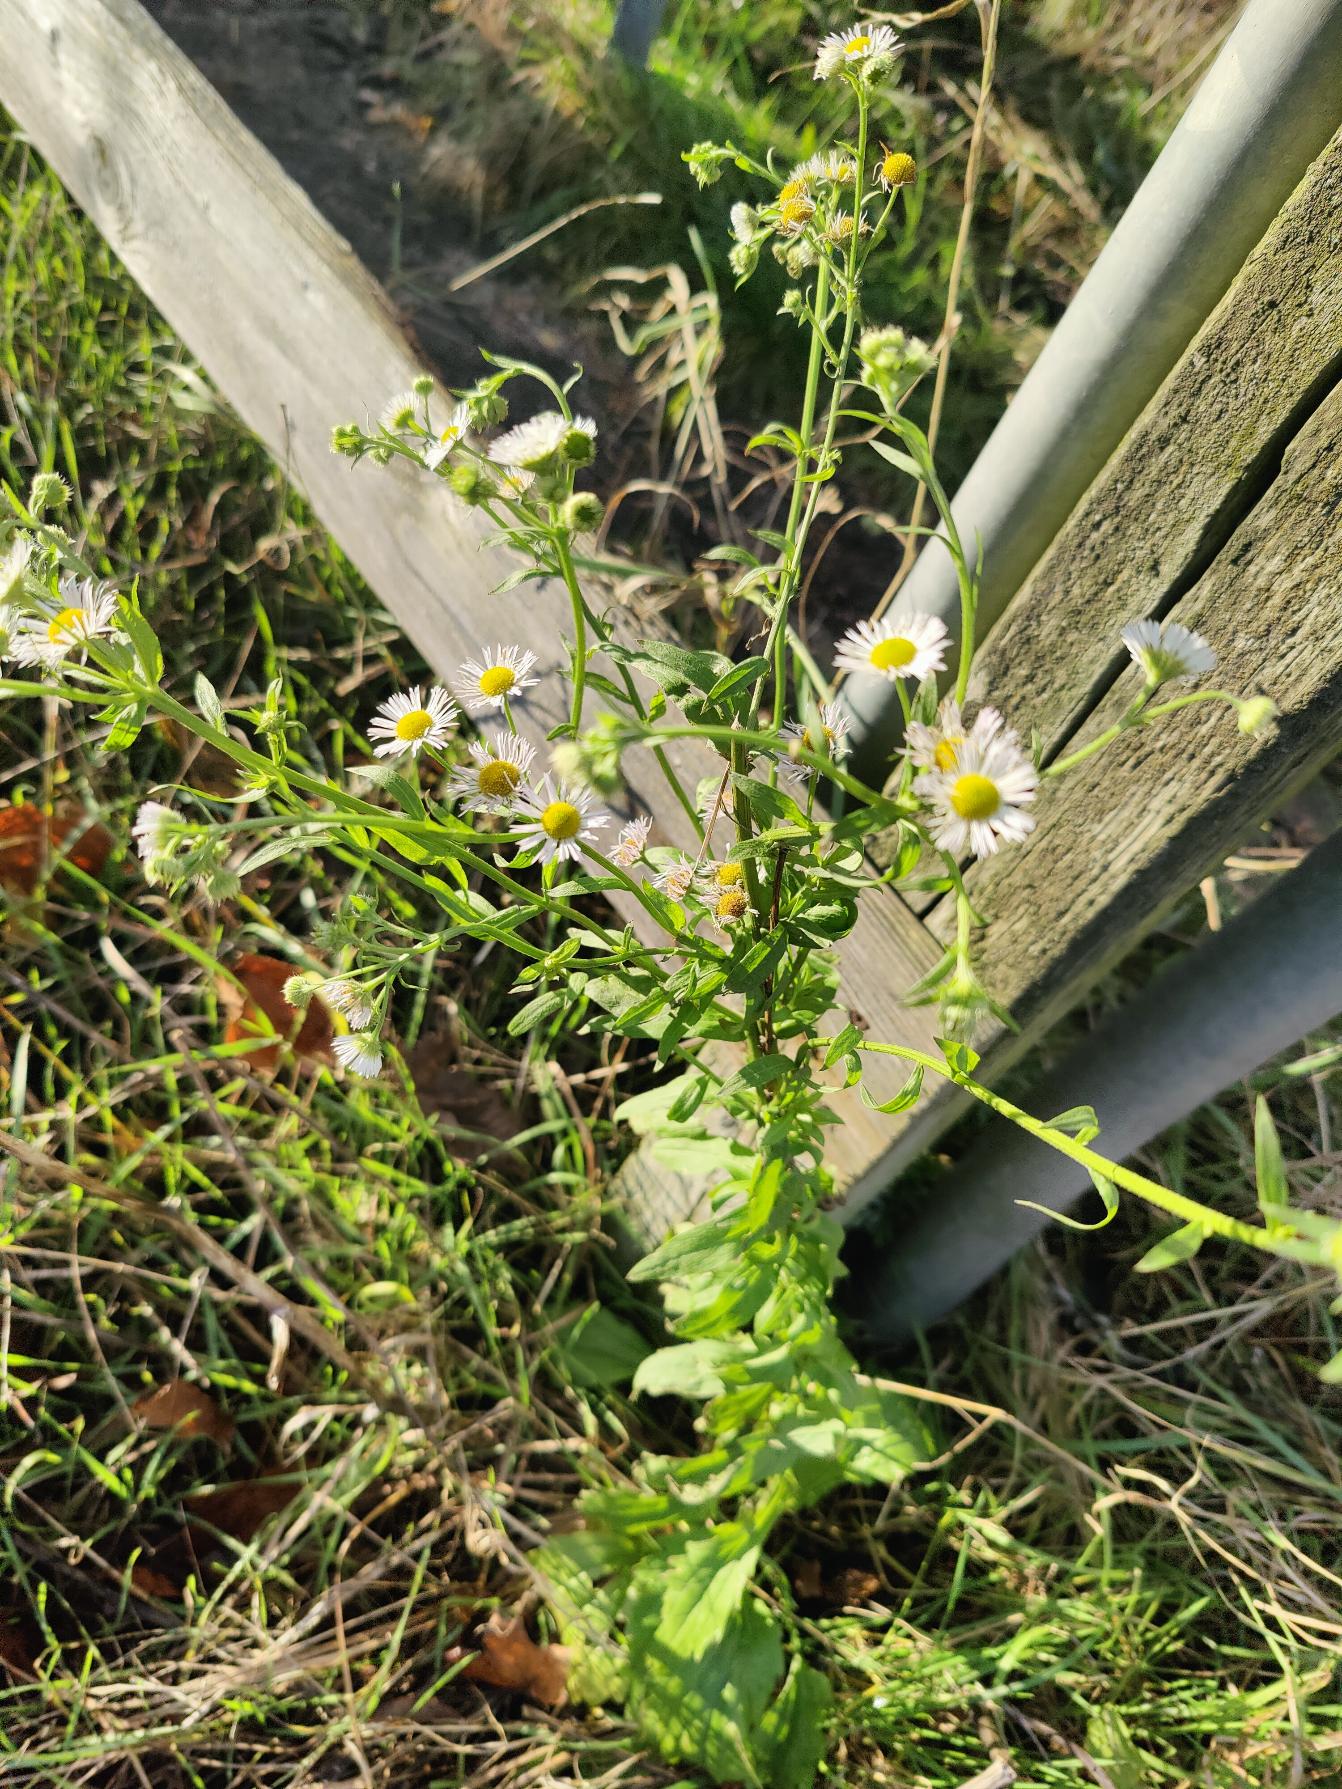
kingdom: Plantae
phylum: Tracheophyta
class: Magnoliopsida
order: Asterales
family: Asteraceae
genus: Erigeron
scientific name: Erigeron annuus
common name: Smalstråle
